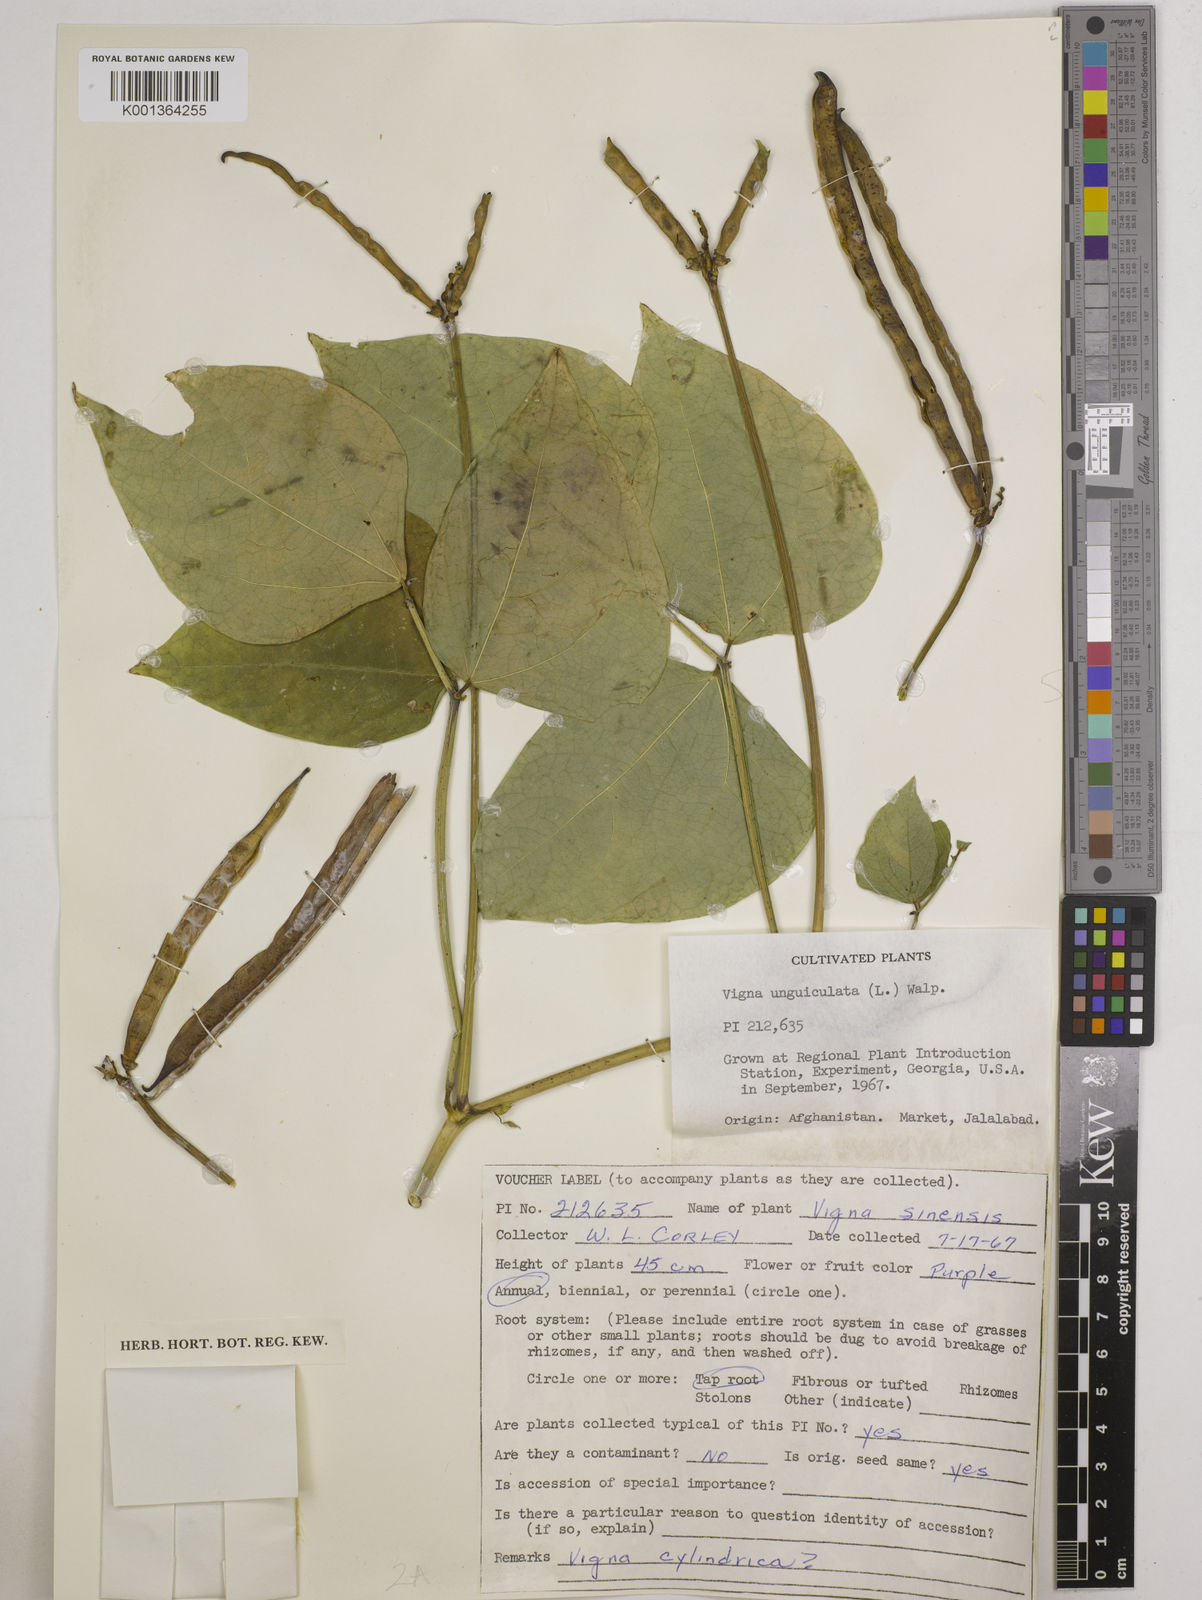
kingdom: Plantae
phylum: Tracheophyta
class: Magnoliopsida
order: Fabales
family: Fabaceae
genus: Vigna
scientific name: Vigna
